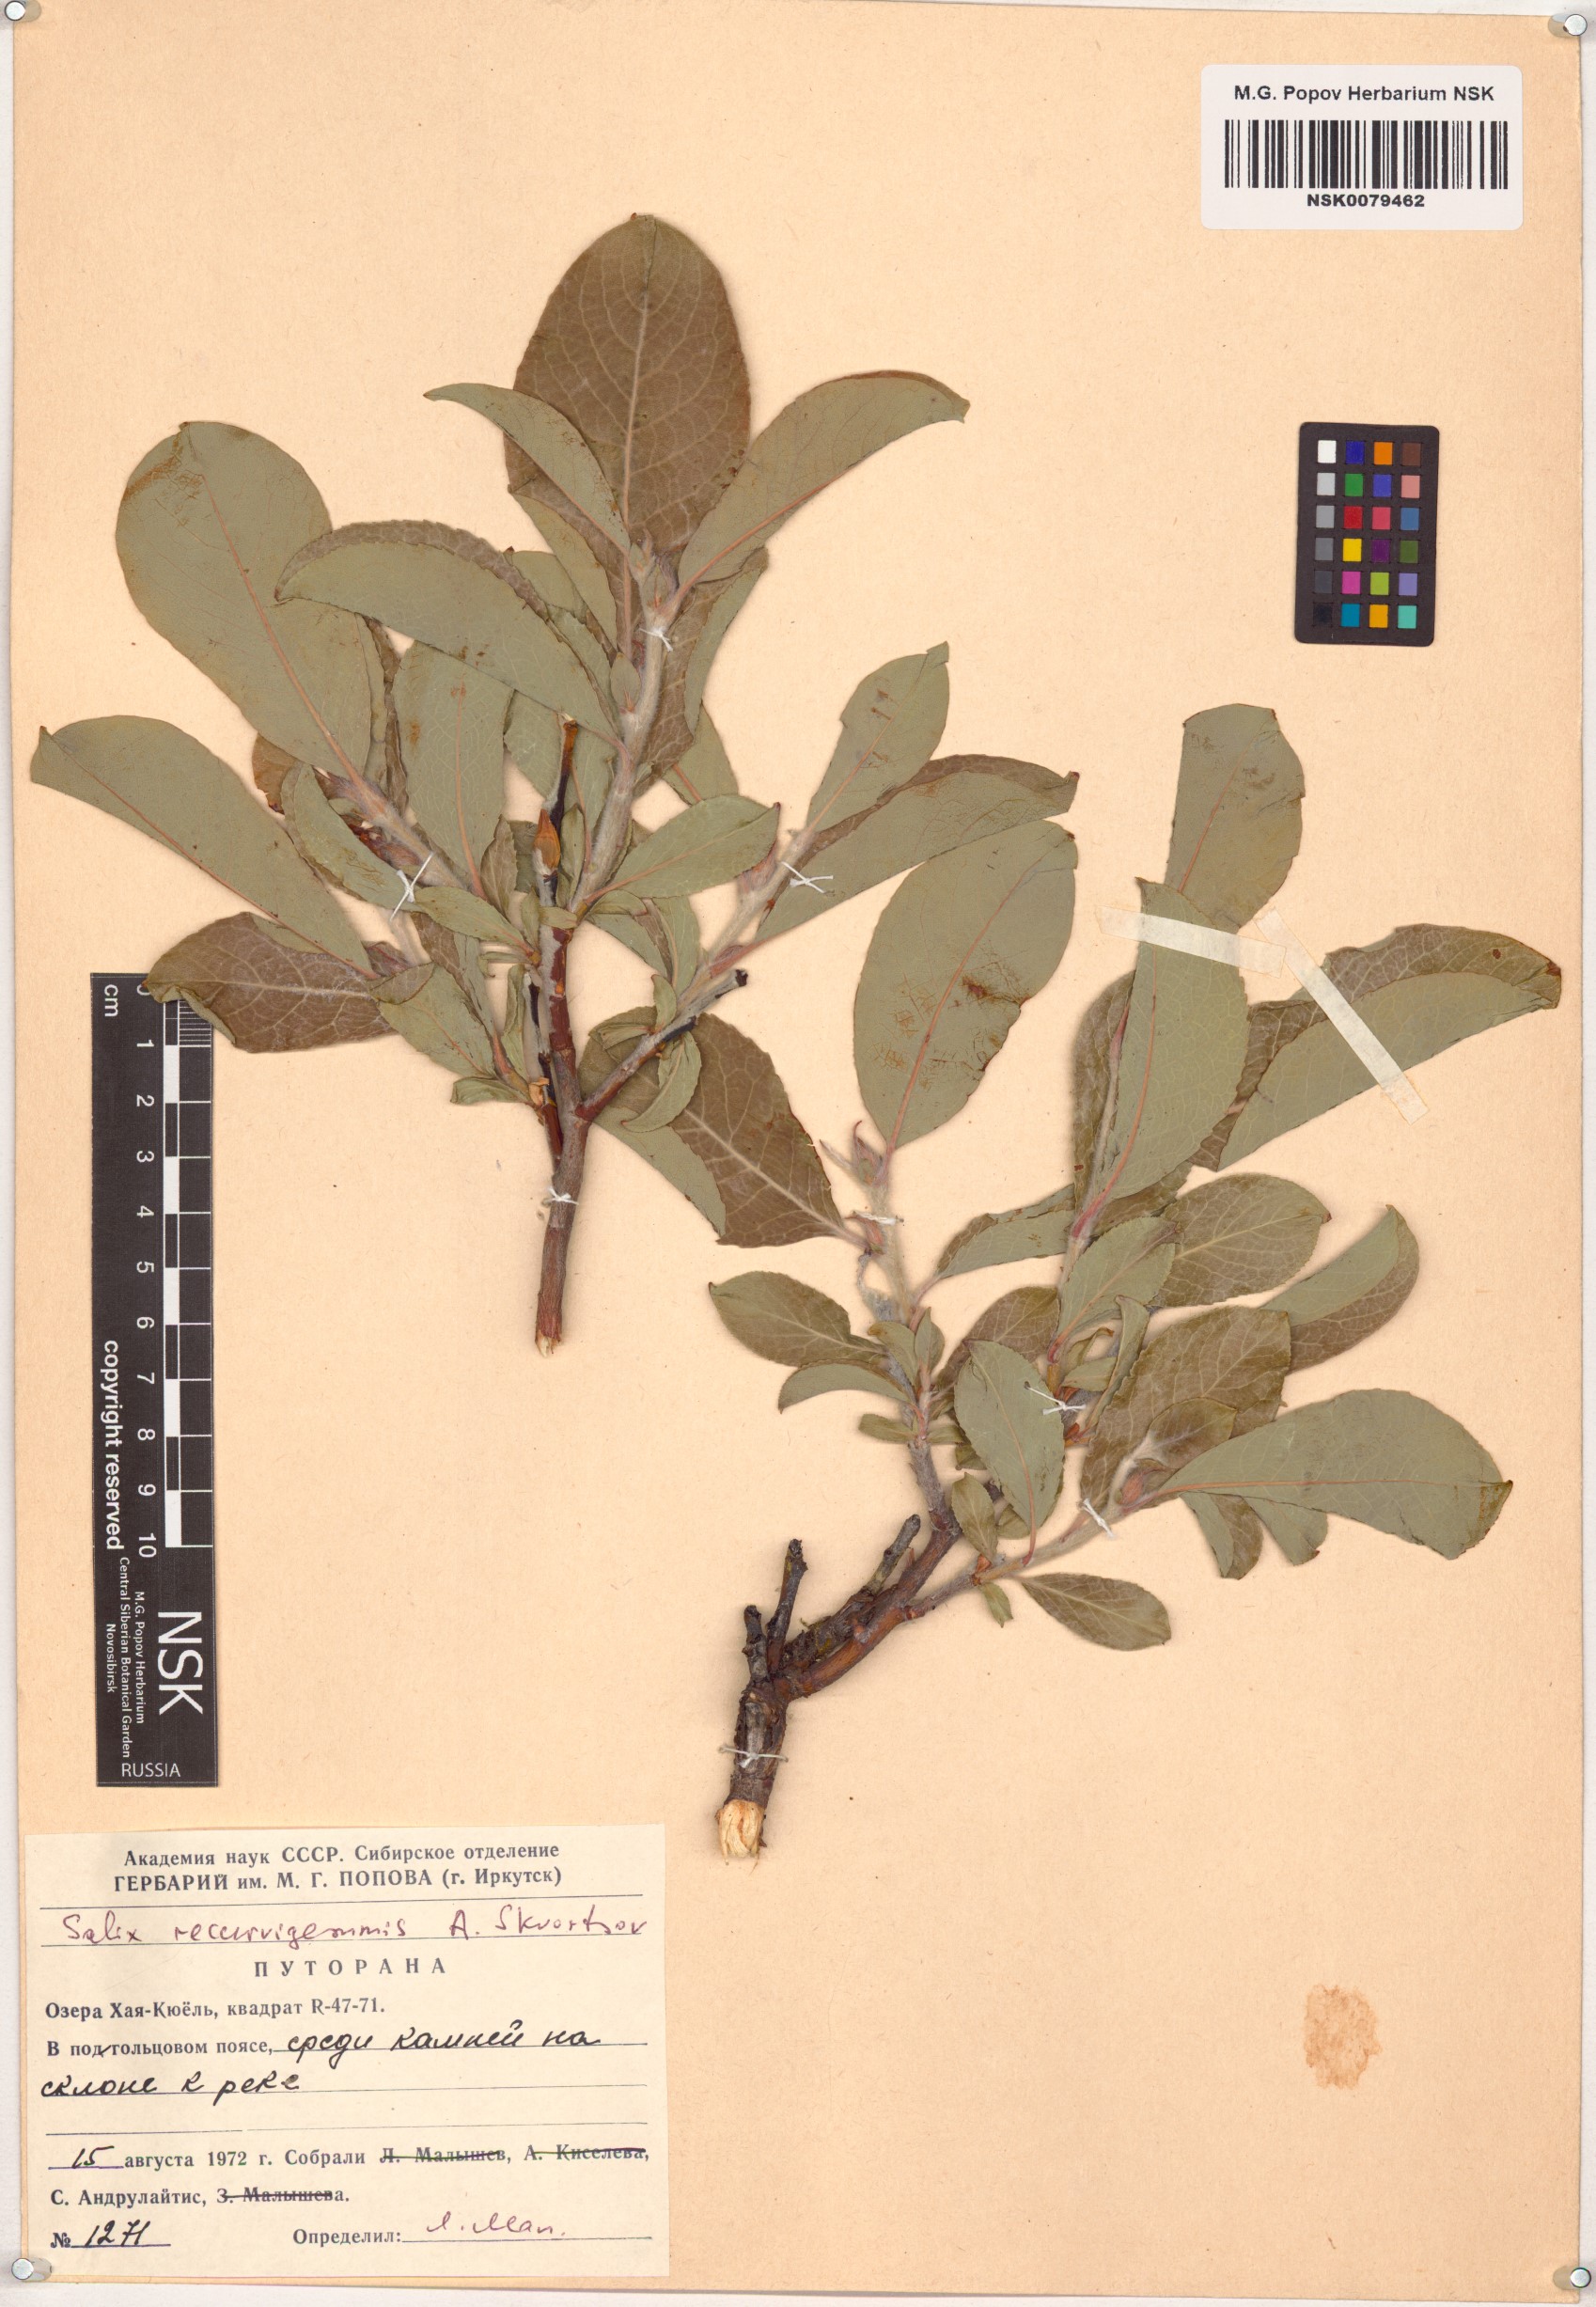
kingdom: Plantae
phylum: Tracheophyta
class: Magnoliopsida
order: Malpighiales
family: Salicaceae
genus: Salix
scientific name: Salix recurvigemmata
